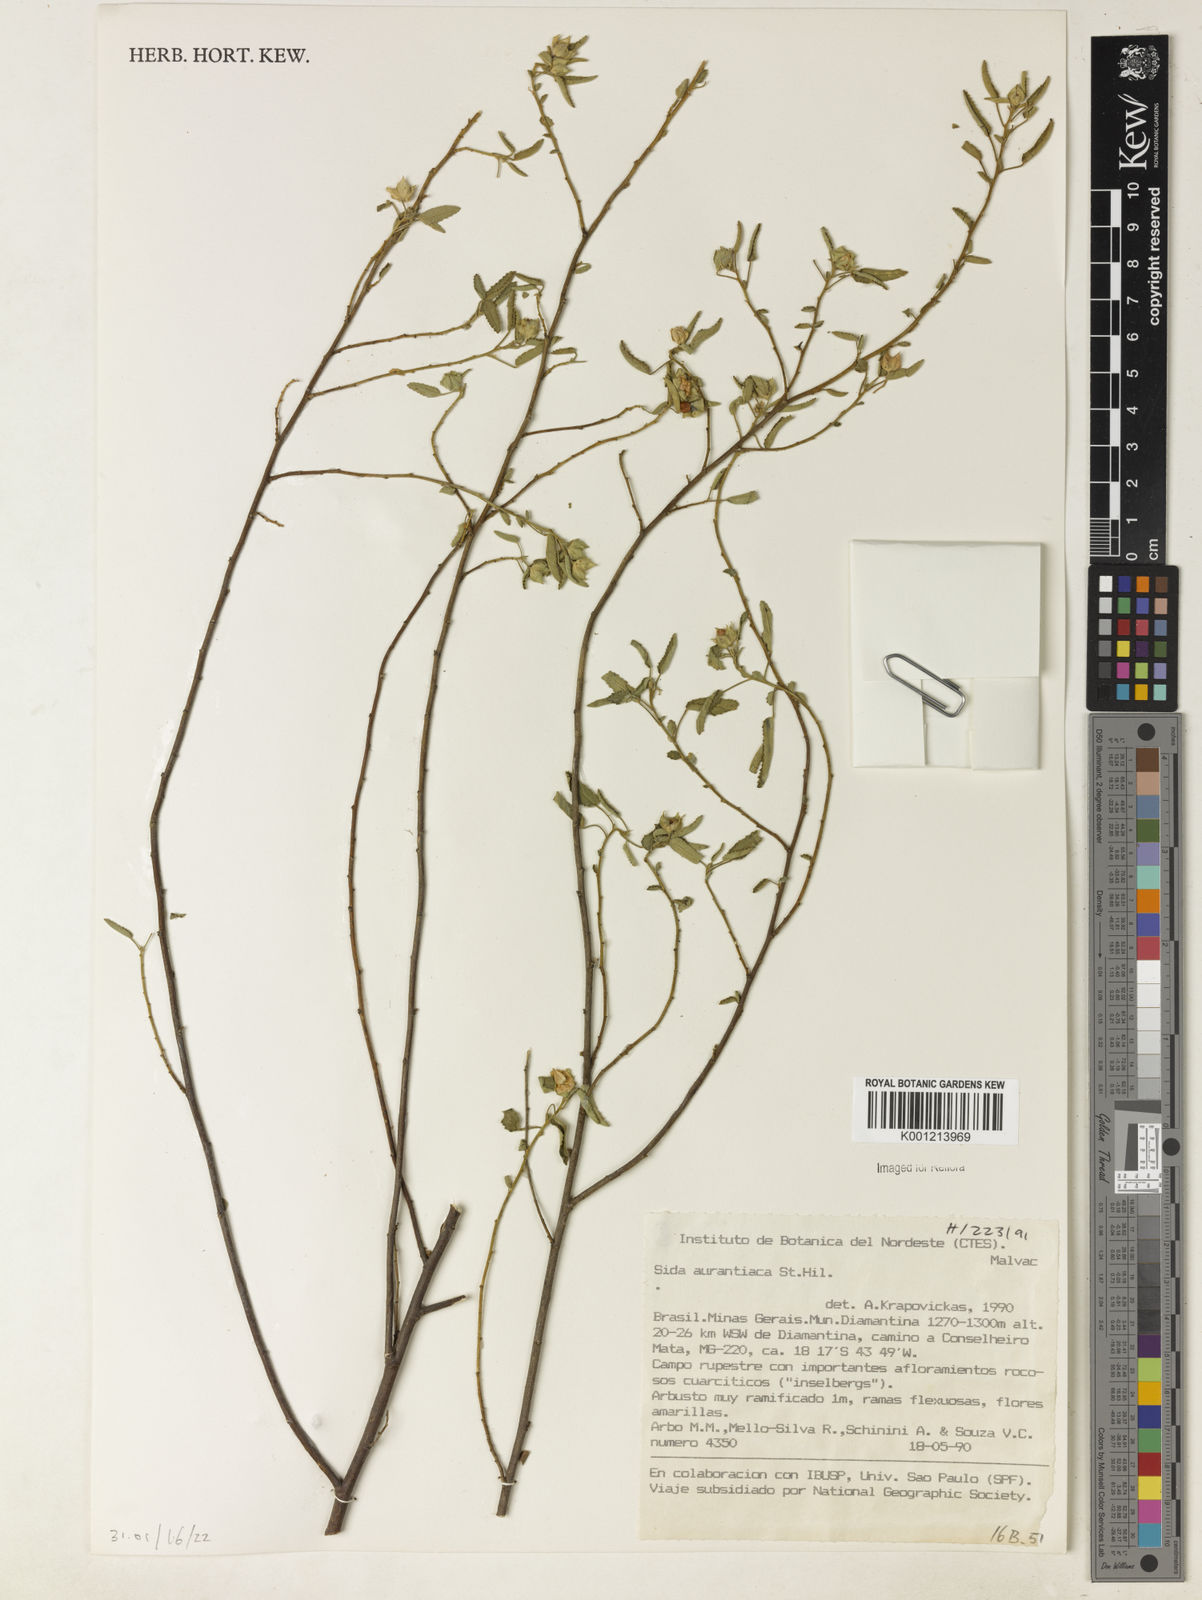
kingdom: Plantae
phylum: Tracheophyta
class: Magnoliopsida
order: Malvales
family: Malvaceae
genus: Sida
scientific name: Sida aurantiaca
